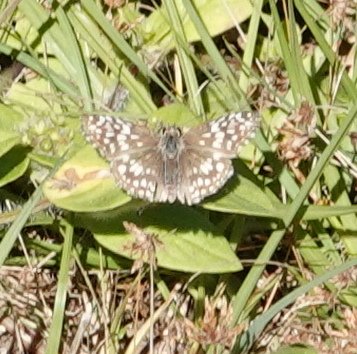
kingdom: Animalia
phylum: Arthropoda
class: Insecta
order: Lepidoptera
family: Hesperiidae
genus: Pyrgus
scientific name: Pyrgus oileus
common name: Tropical Checkered Skipper
